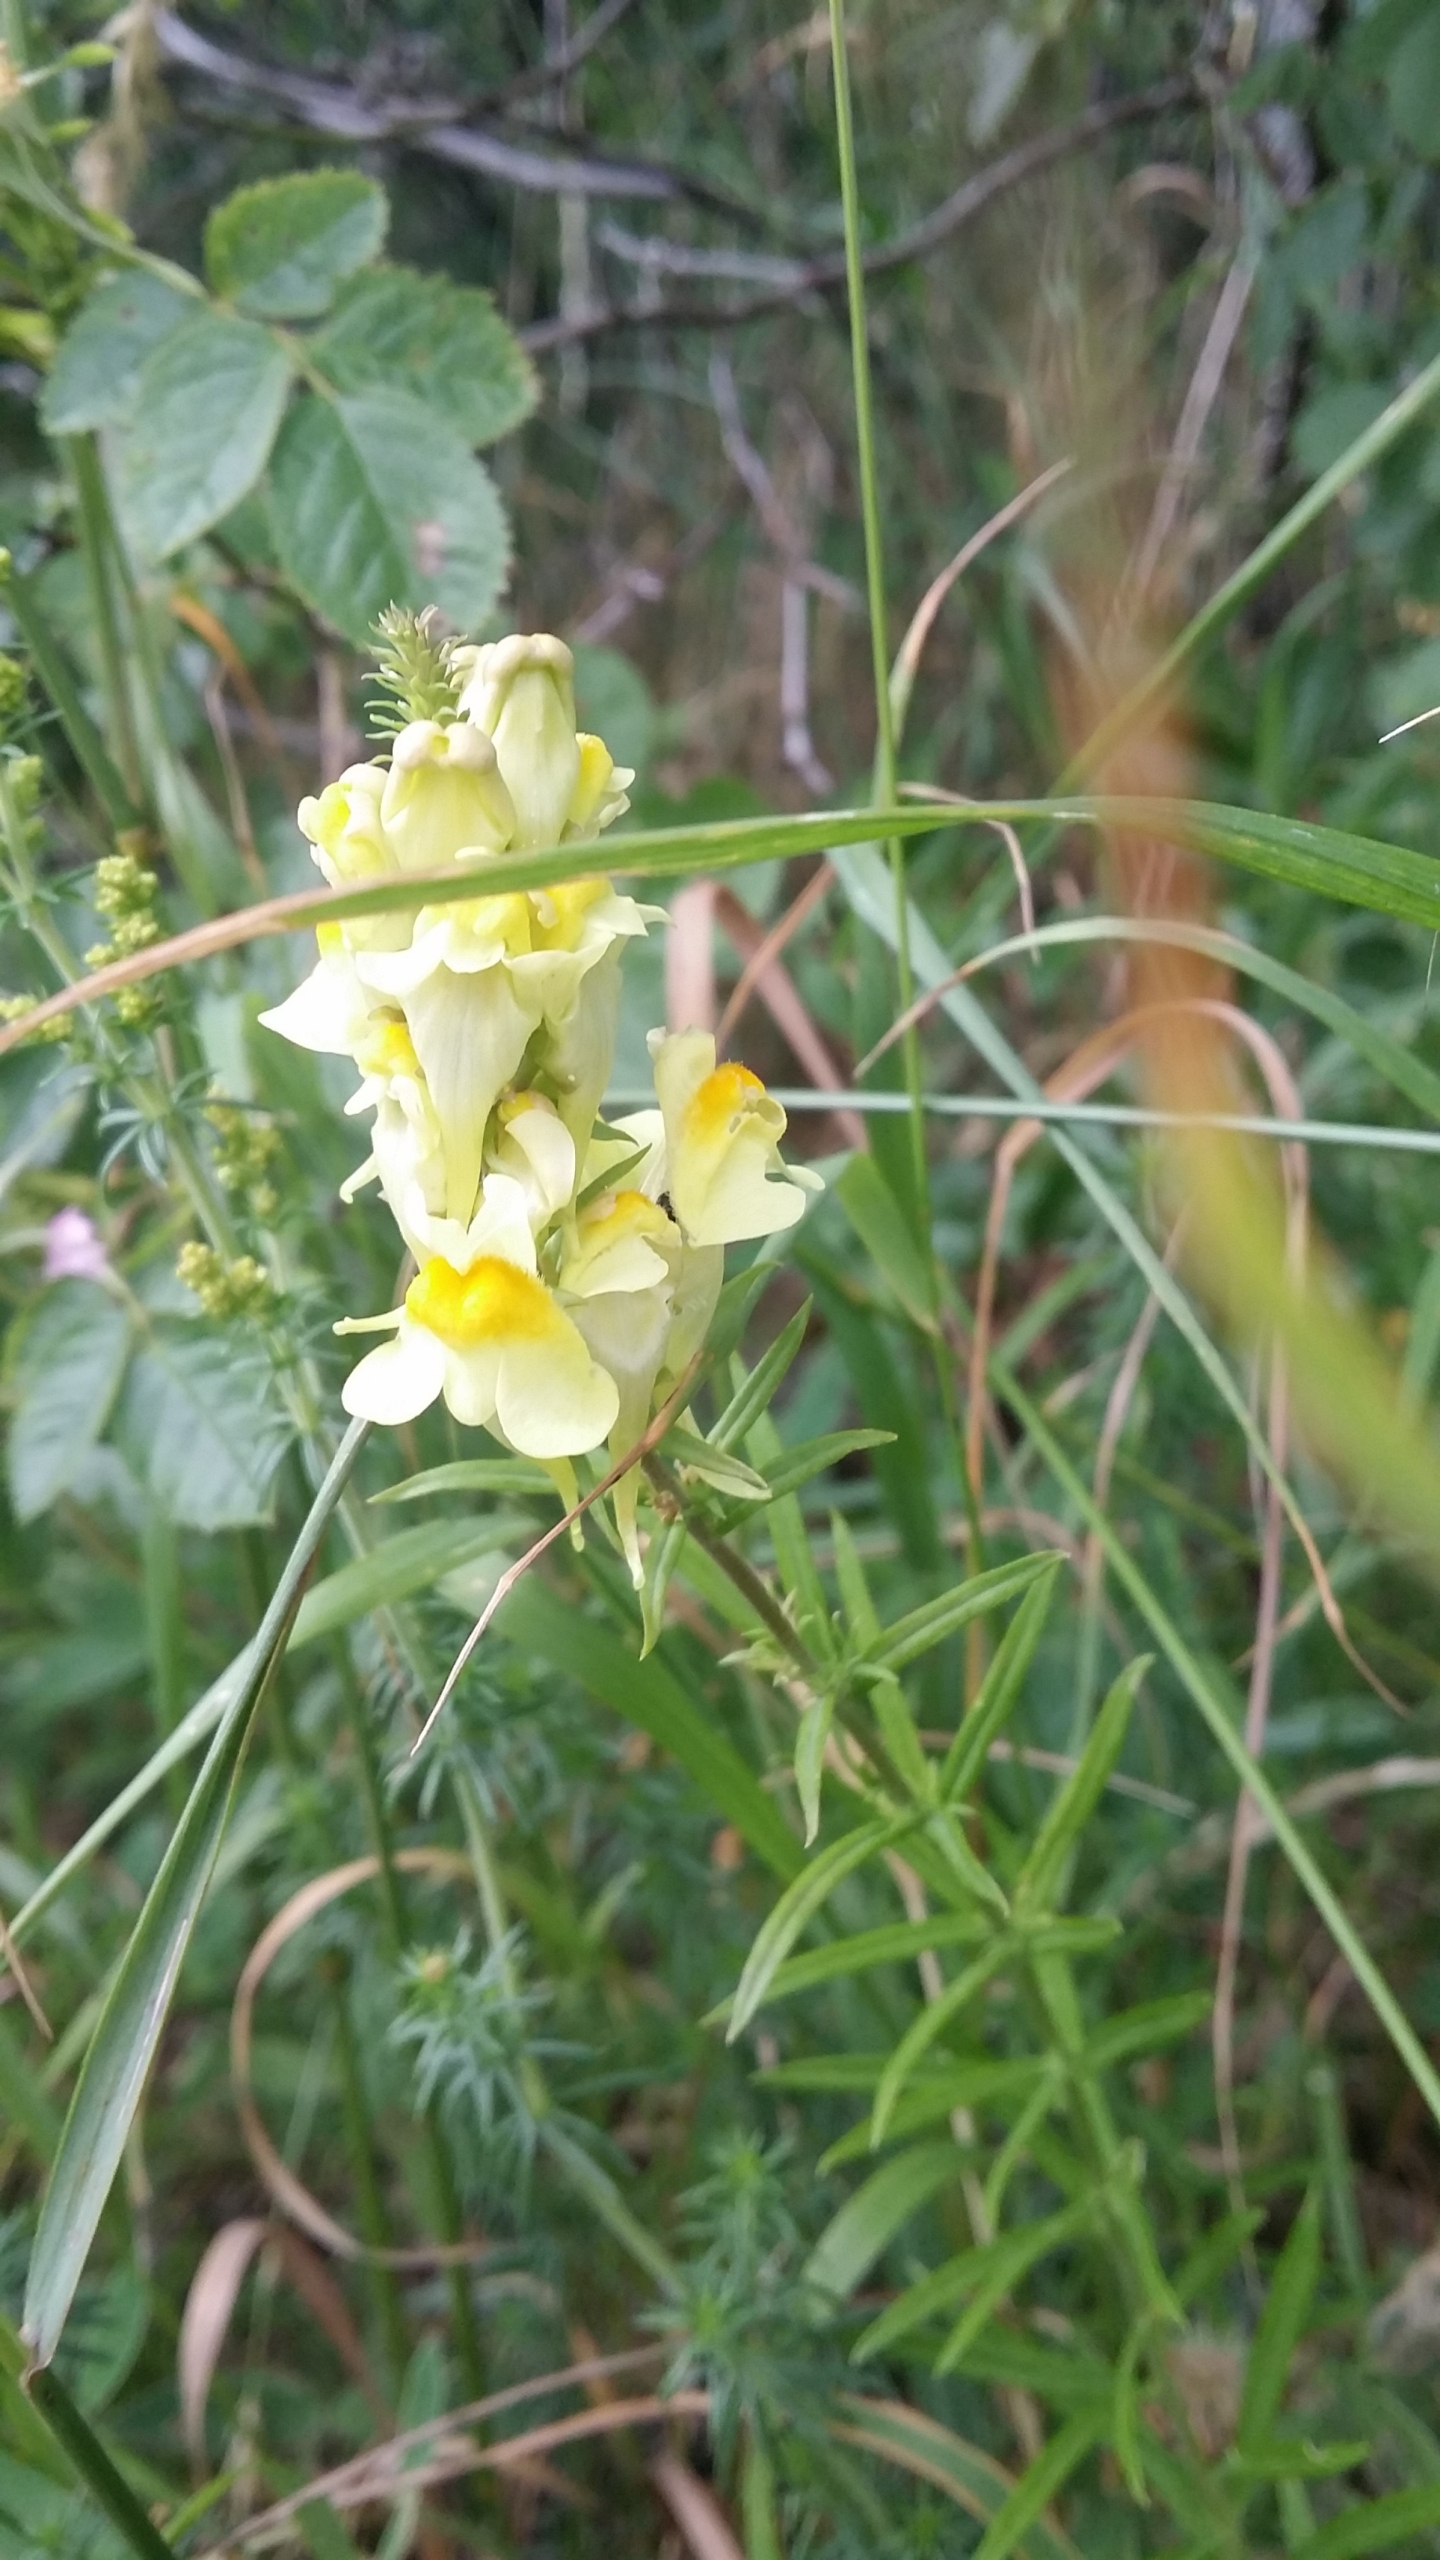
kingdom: Plantae
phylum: Tracheophyta
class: Magnoliopsida
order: Lamiales
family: Plantaginaceae
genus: Linaria
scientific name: Linaria vulgaris
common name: Almindelig torskemund
